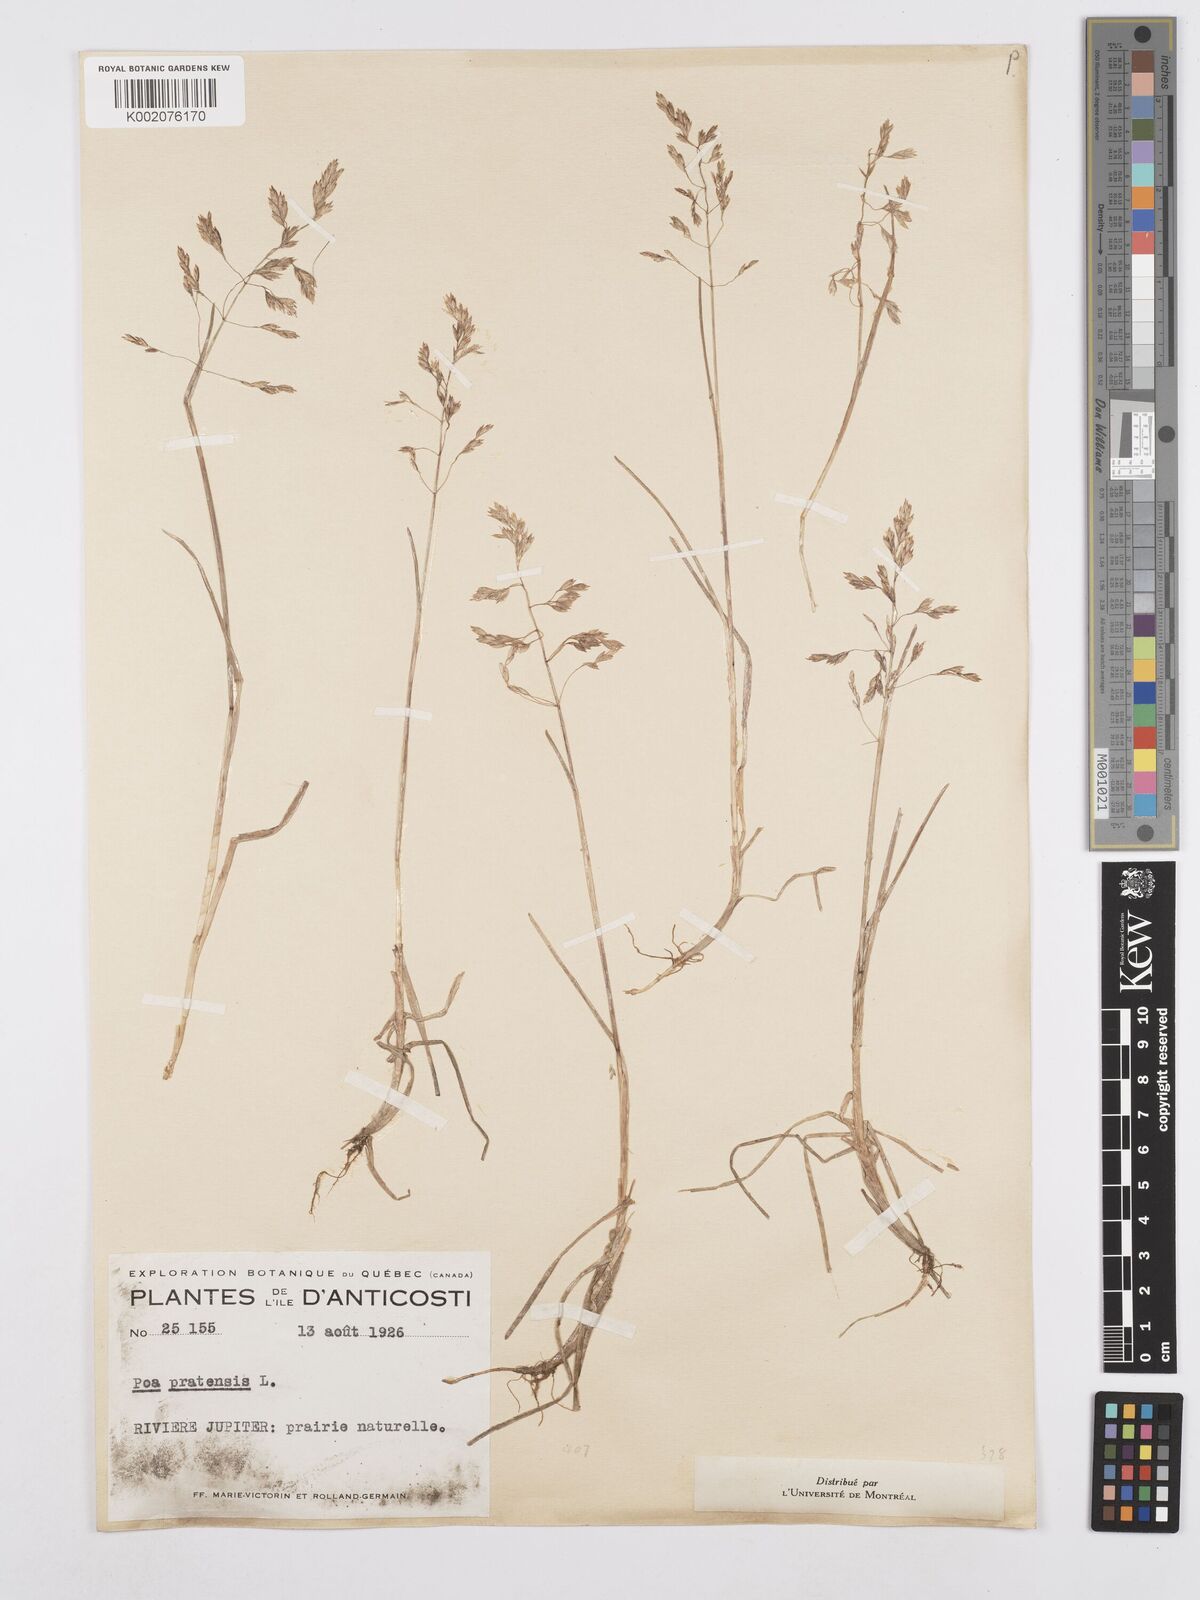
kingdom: Plantae
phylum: Tracheophyta
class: Liliopsida
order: Poales
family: Poaceae
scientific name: Poaceae
